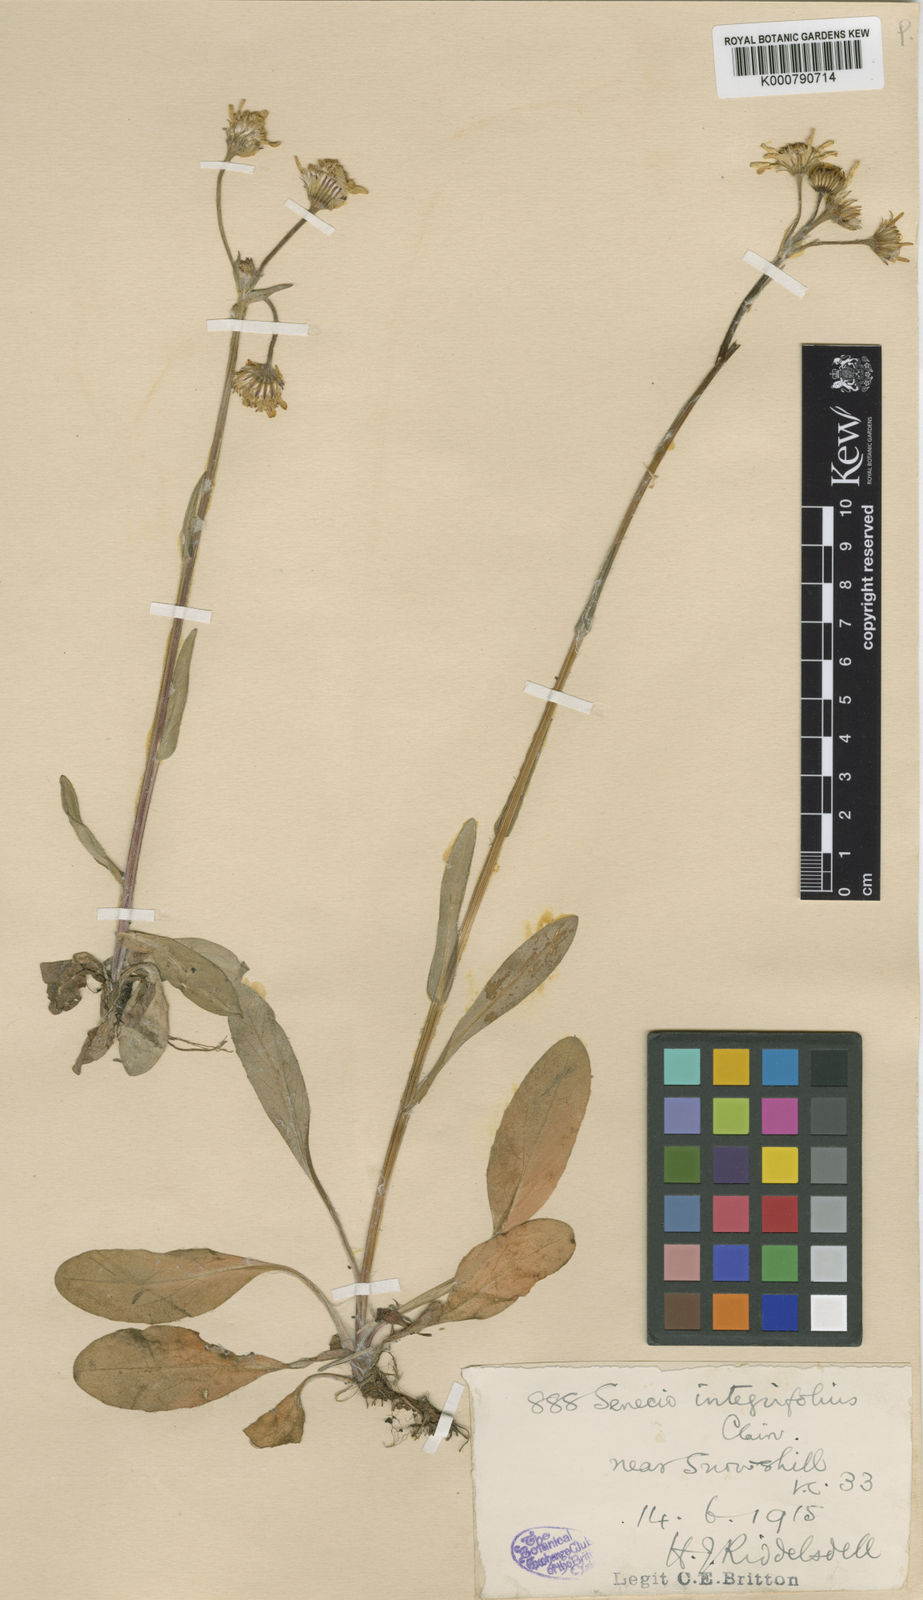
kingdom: Plantae
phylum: Tracheophyta
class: Magnoliopsida
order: Asterales
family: Asteraceae
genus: Tephroseris
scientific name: Tephroseris integrifolia
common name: Field fleawort
